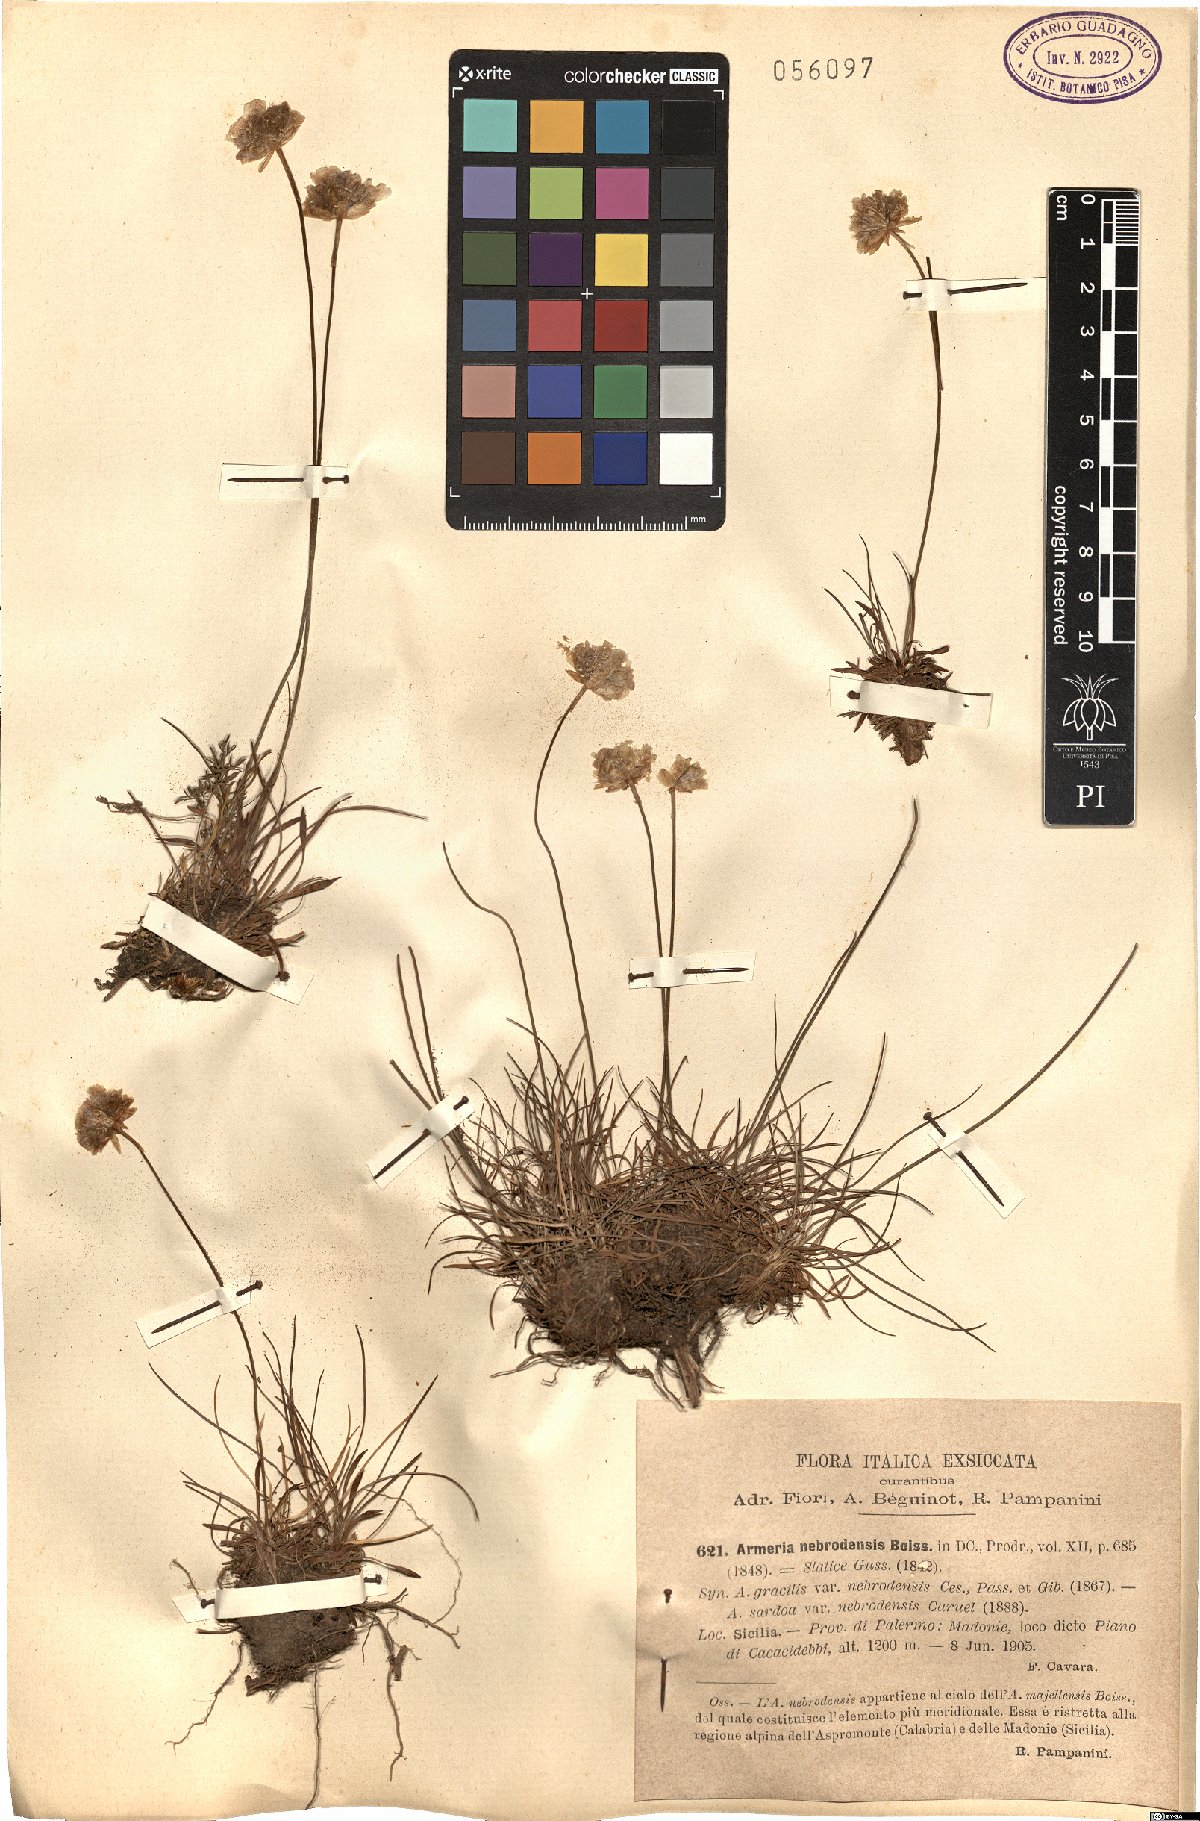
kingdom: Plantae
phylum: Tracheophyta
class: Magnoliopsida
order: Caryophyllales
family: Plumbaginaceae
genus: Armeria
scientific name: Armeria nebrodensis
